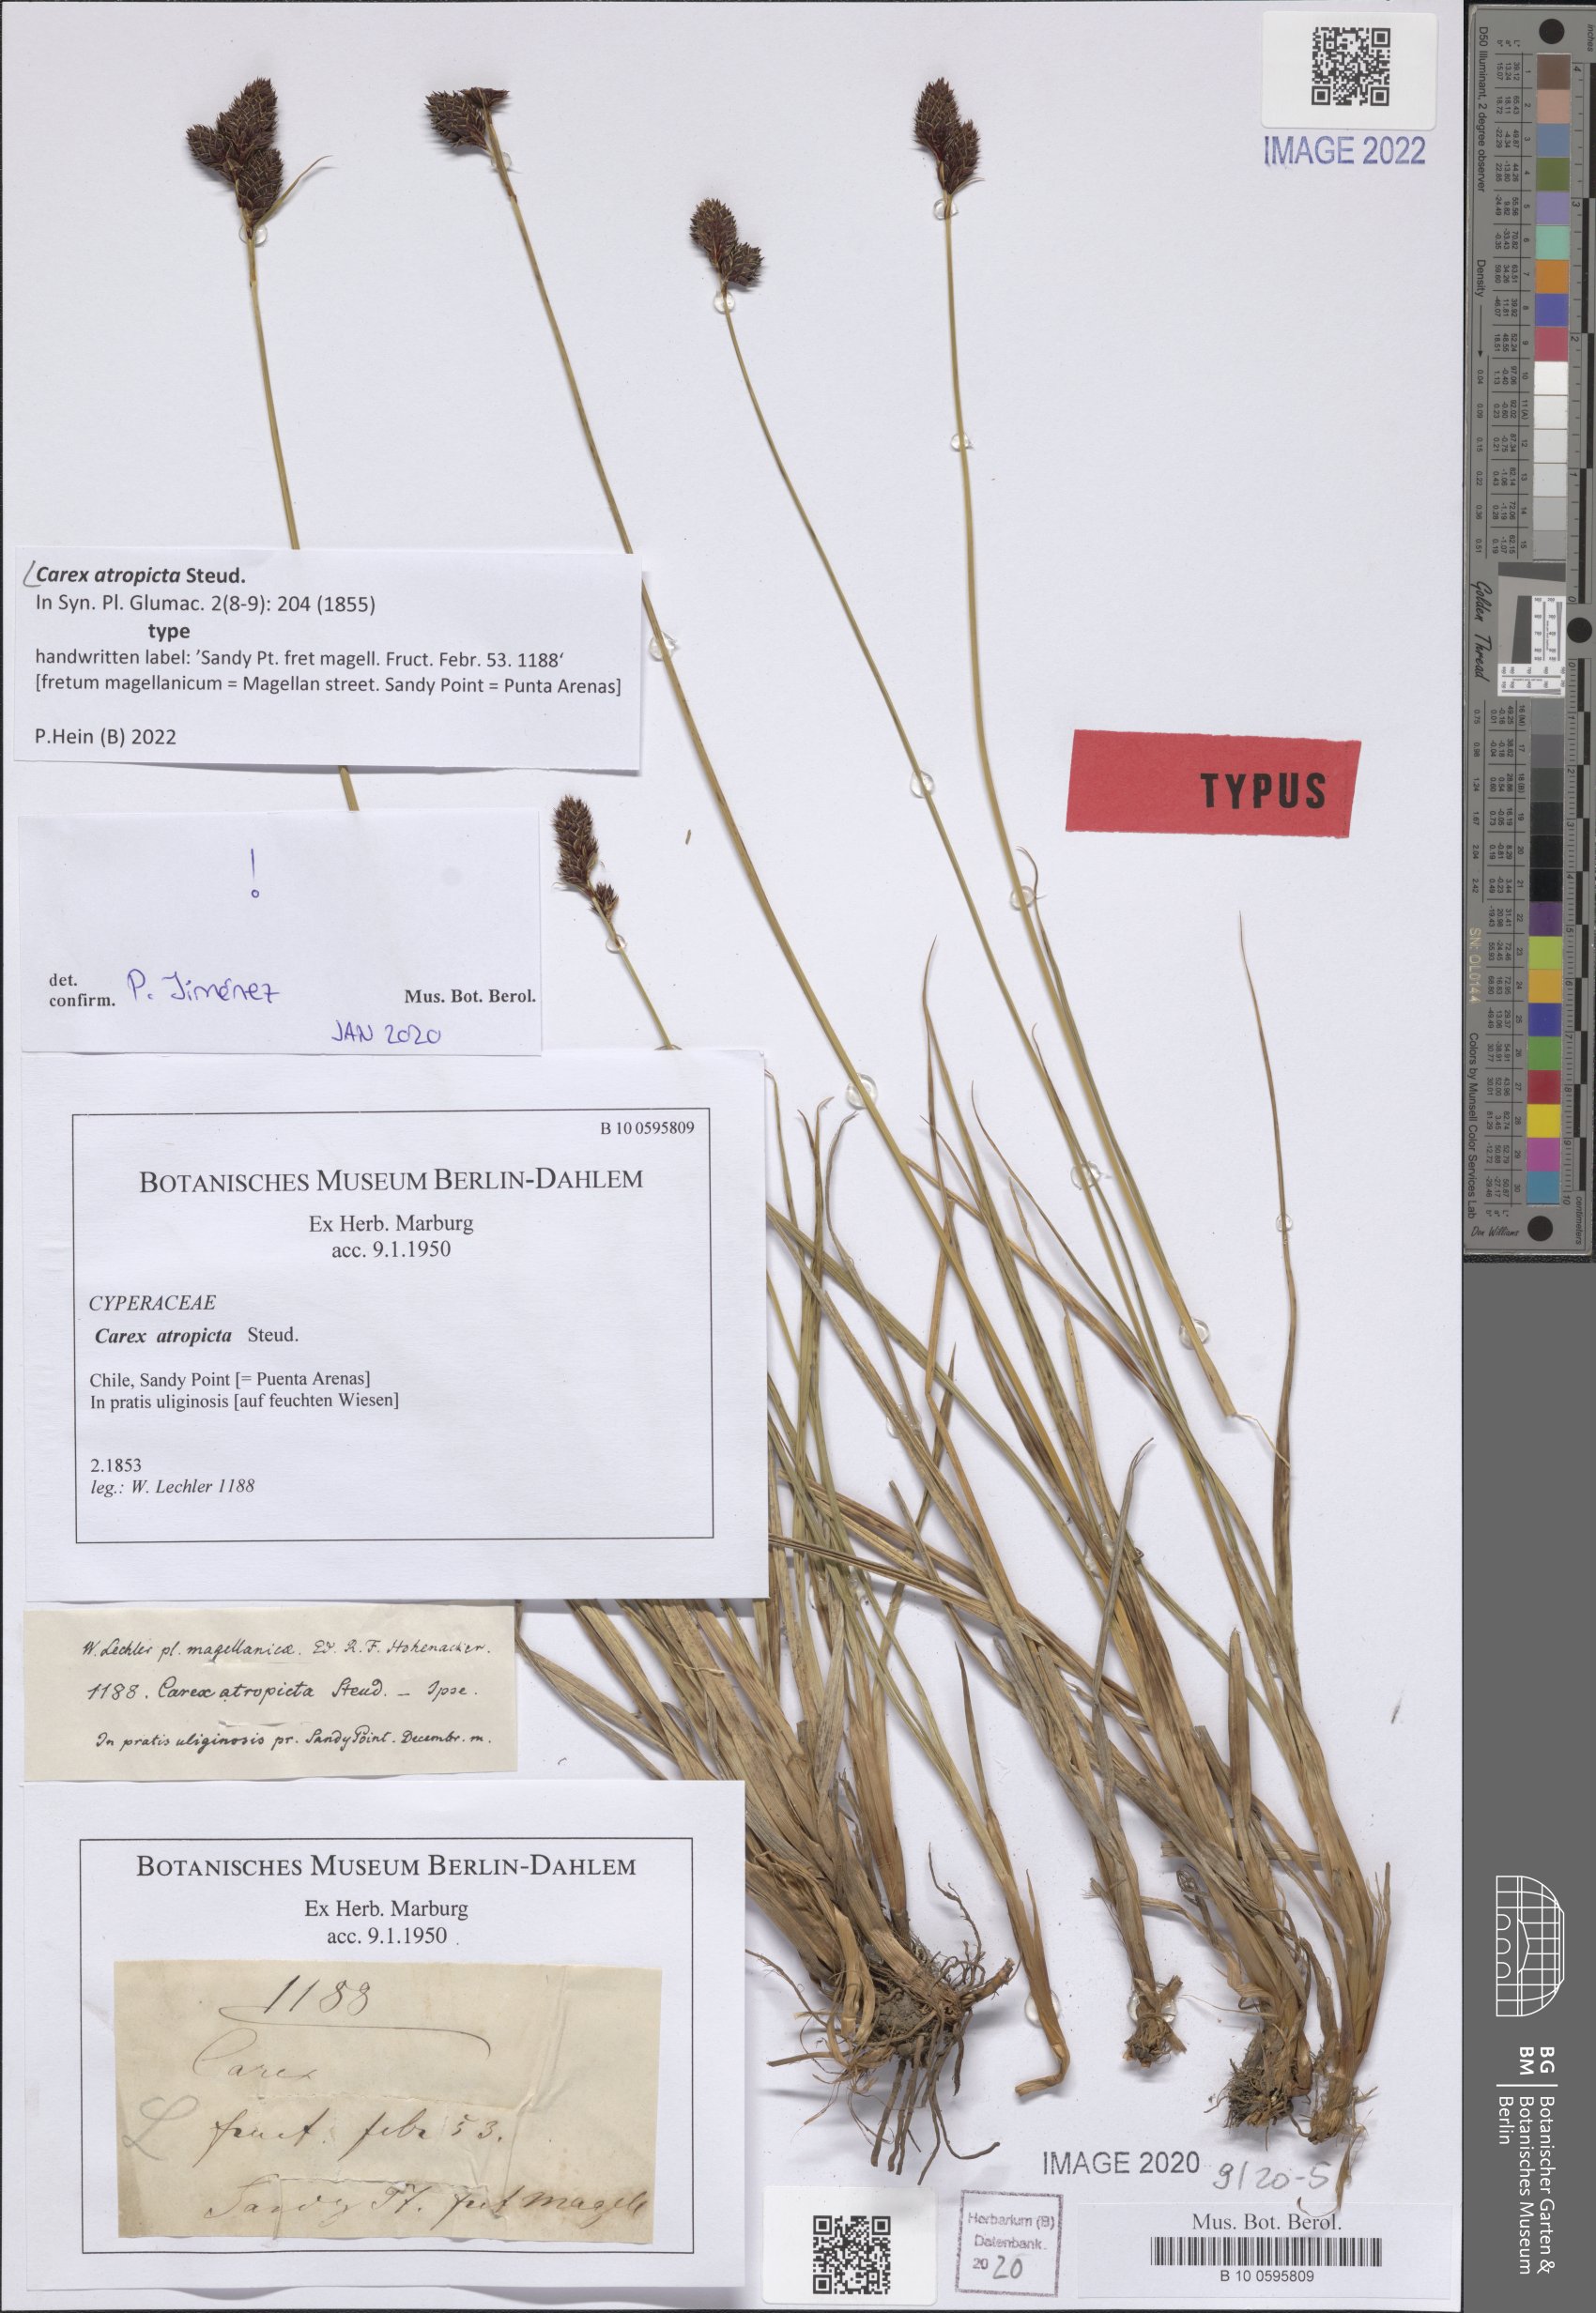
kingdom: Plantae
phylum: Tracheophyta
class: Liliopsida
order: Poales
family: Cyperaceae
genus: Carex
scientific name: Carex atropicta
